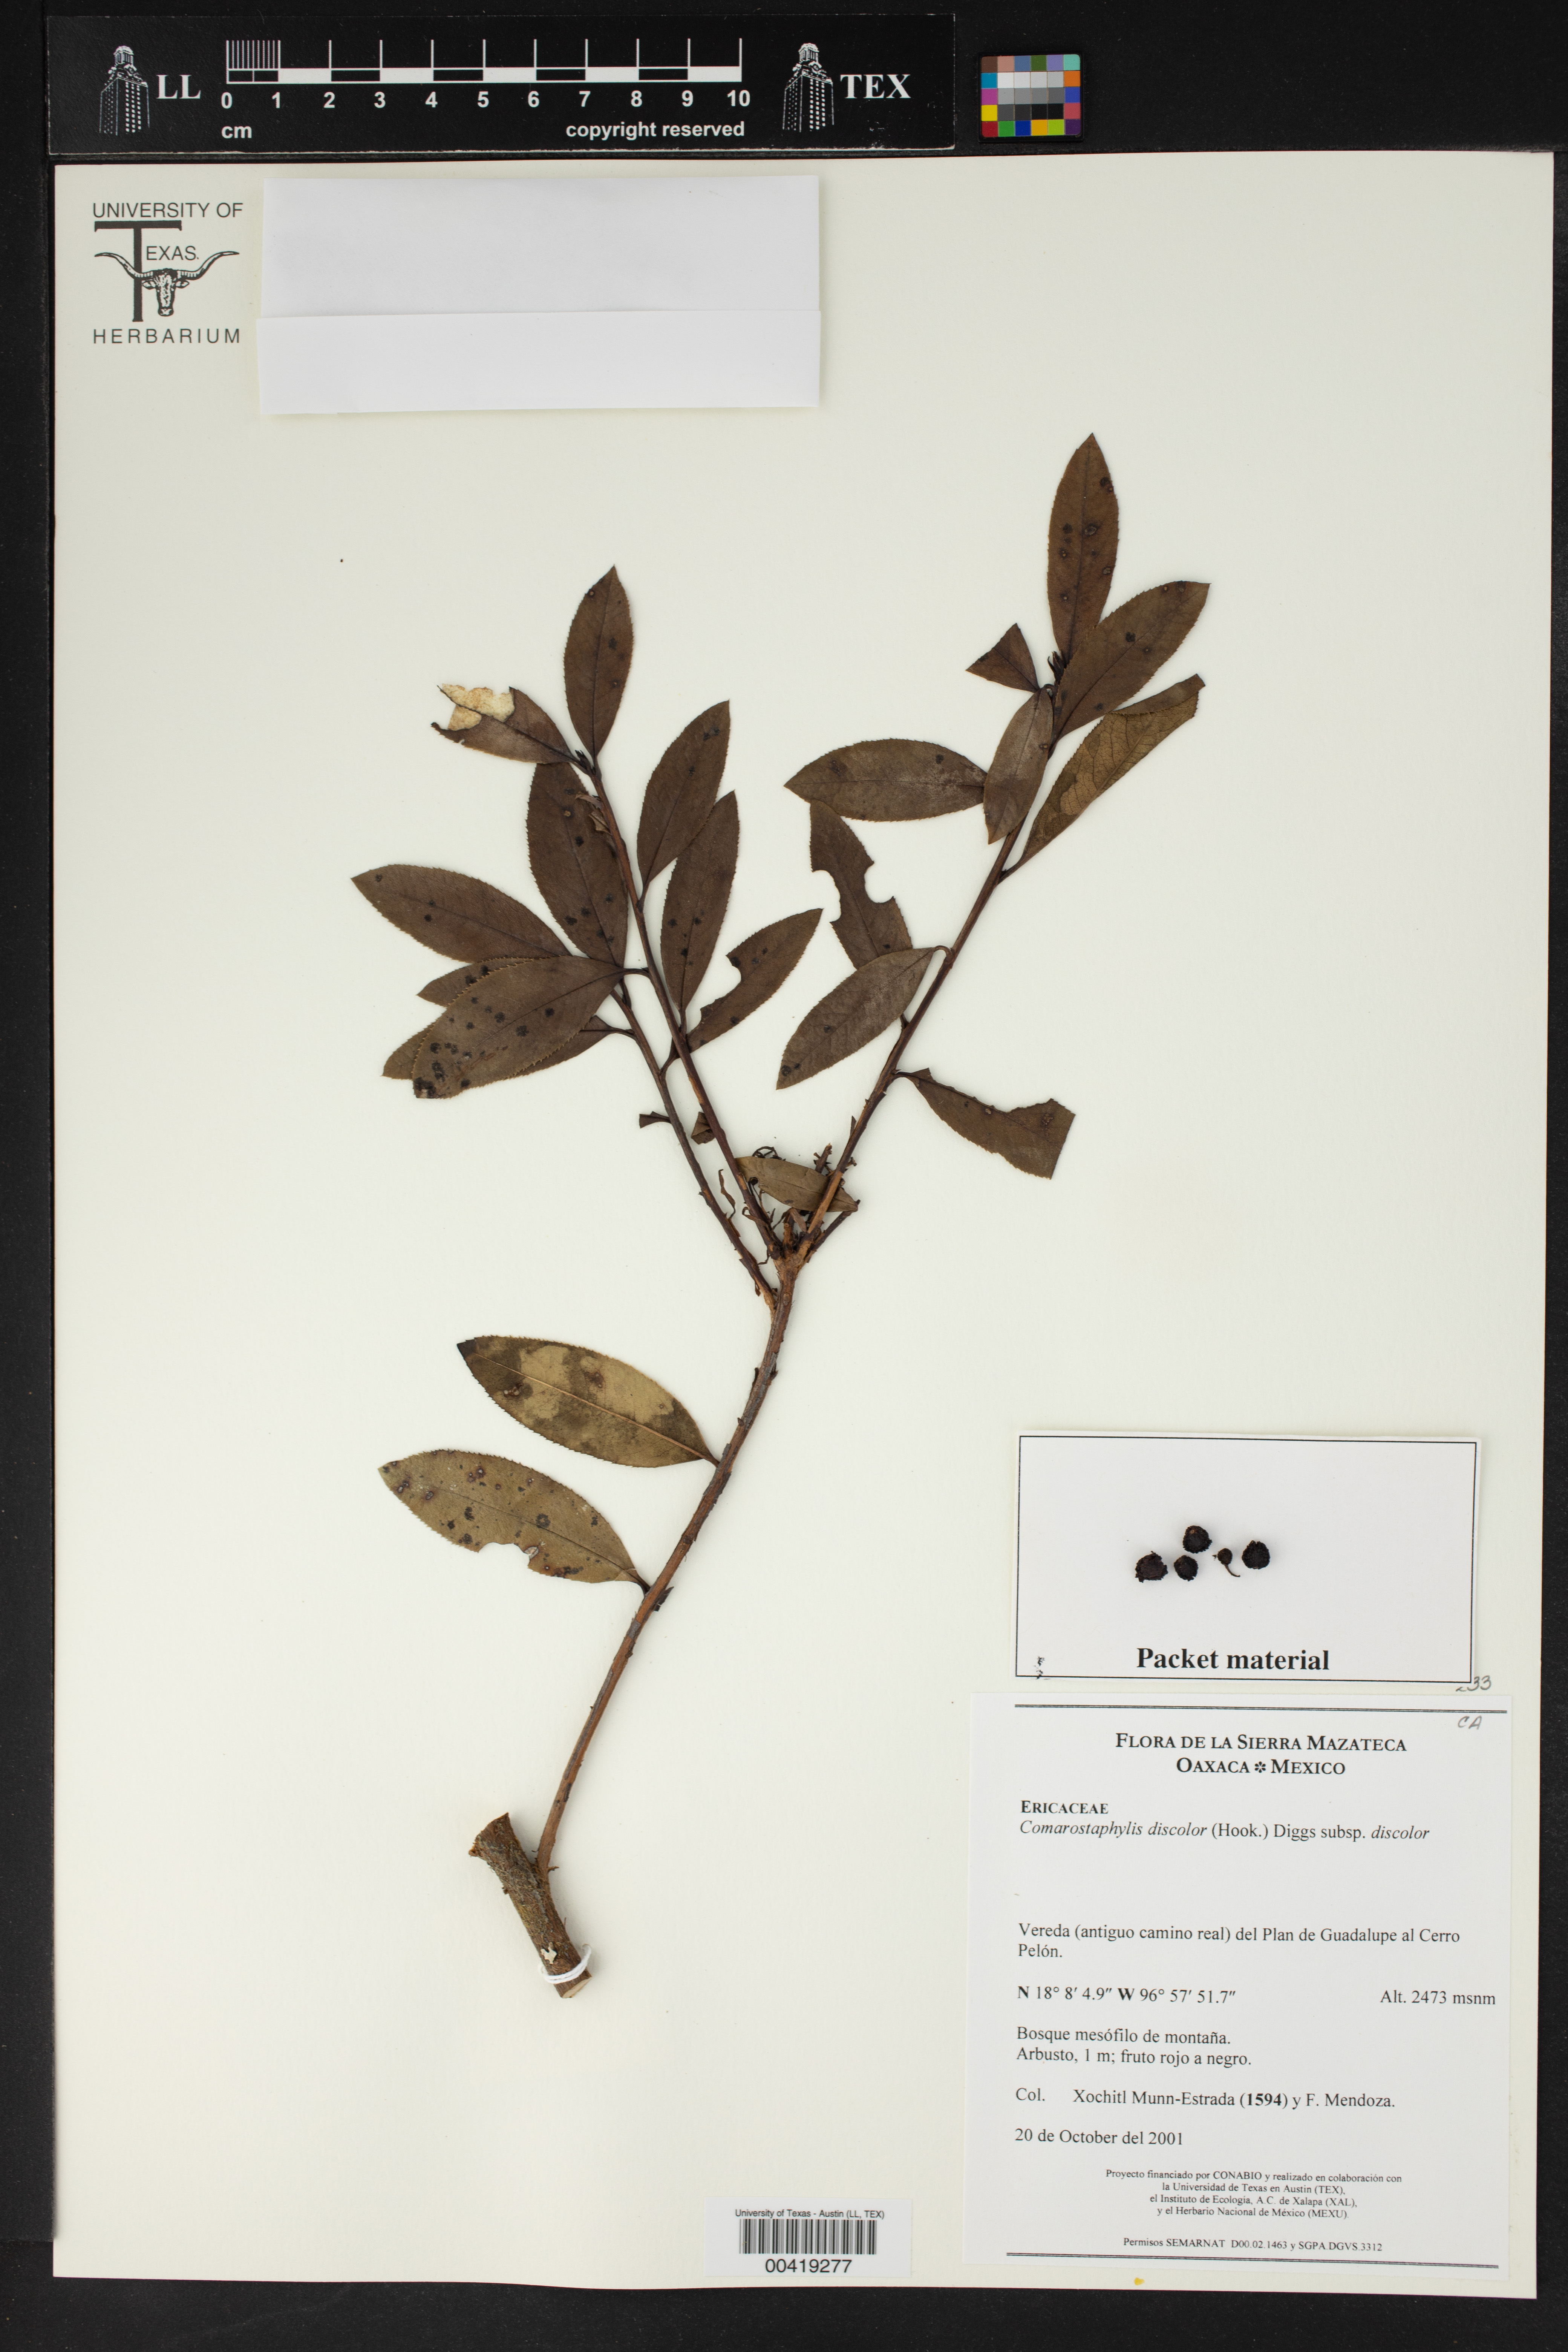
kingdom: Plantae
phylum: Tracheophyta
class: Magnoliopsida
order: Ericales
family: Ericaceae
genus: Comarostaphylis
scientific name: Comarostaphylis discolor
